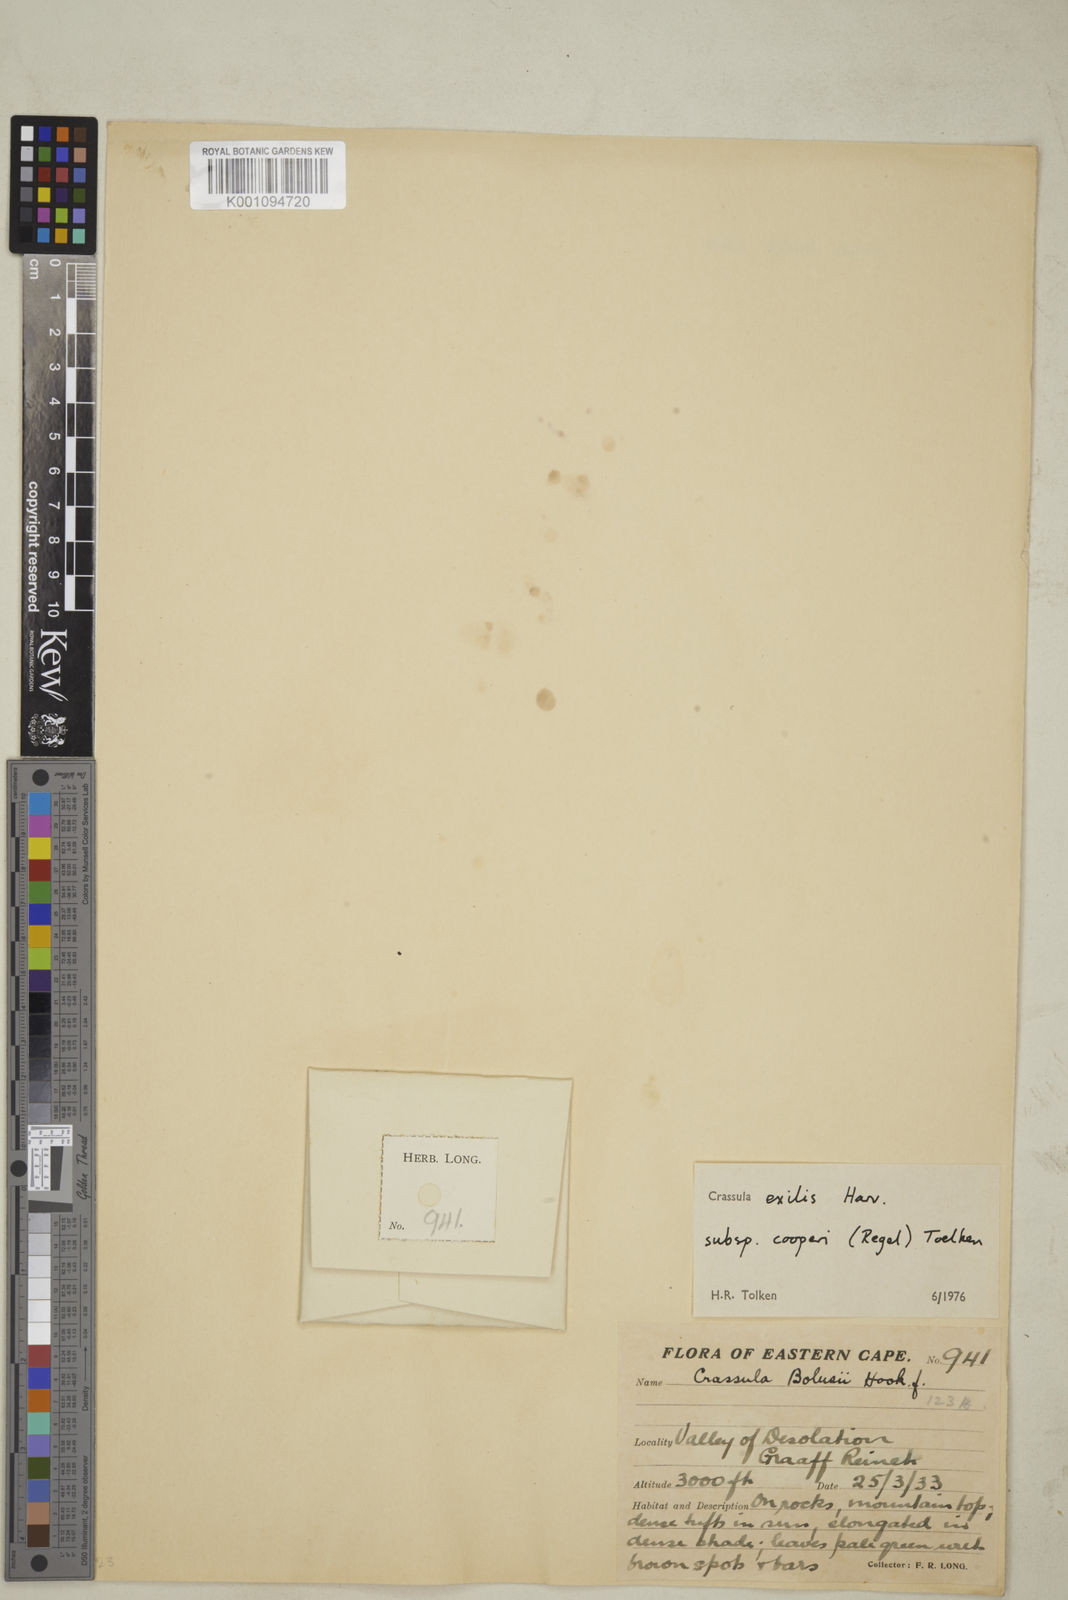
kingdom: Plantae
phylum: Tracheophyta
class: Magnoliopsida
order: Saxifragales
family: Crassulaceae
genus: Crassula
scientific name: Crassula exilis
